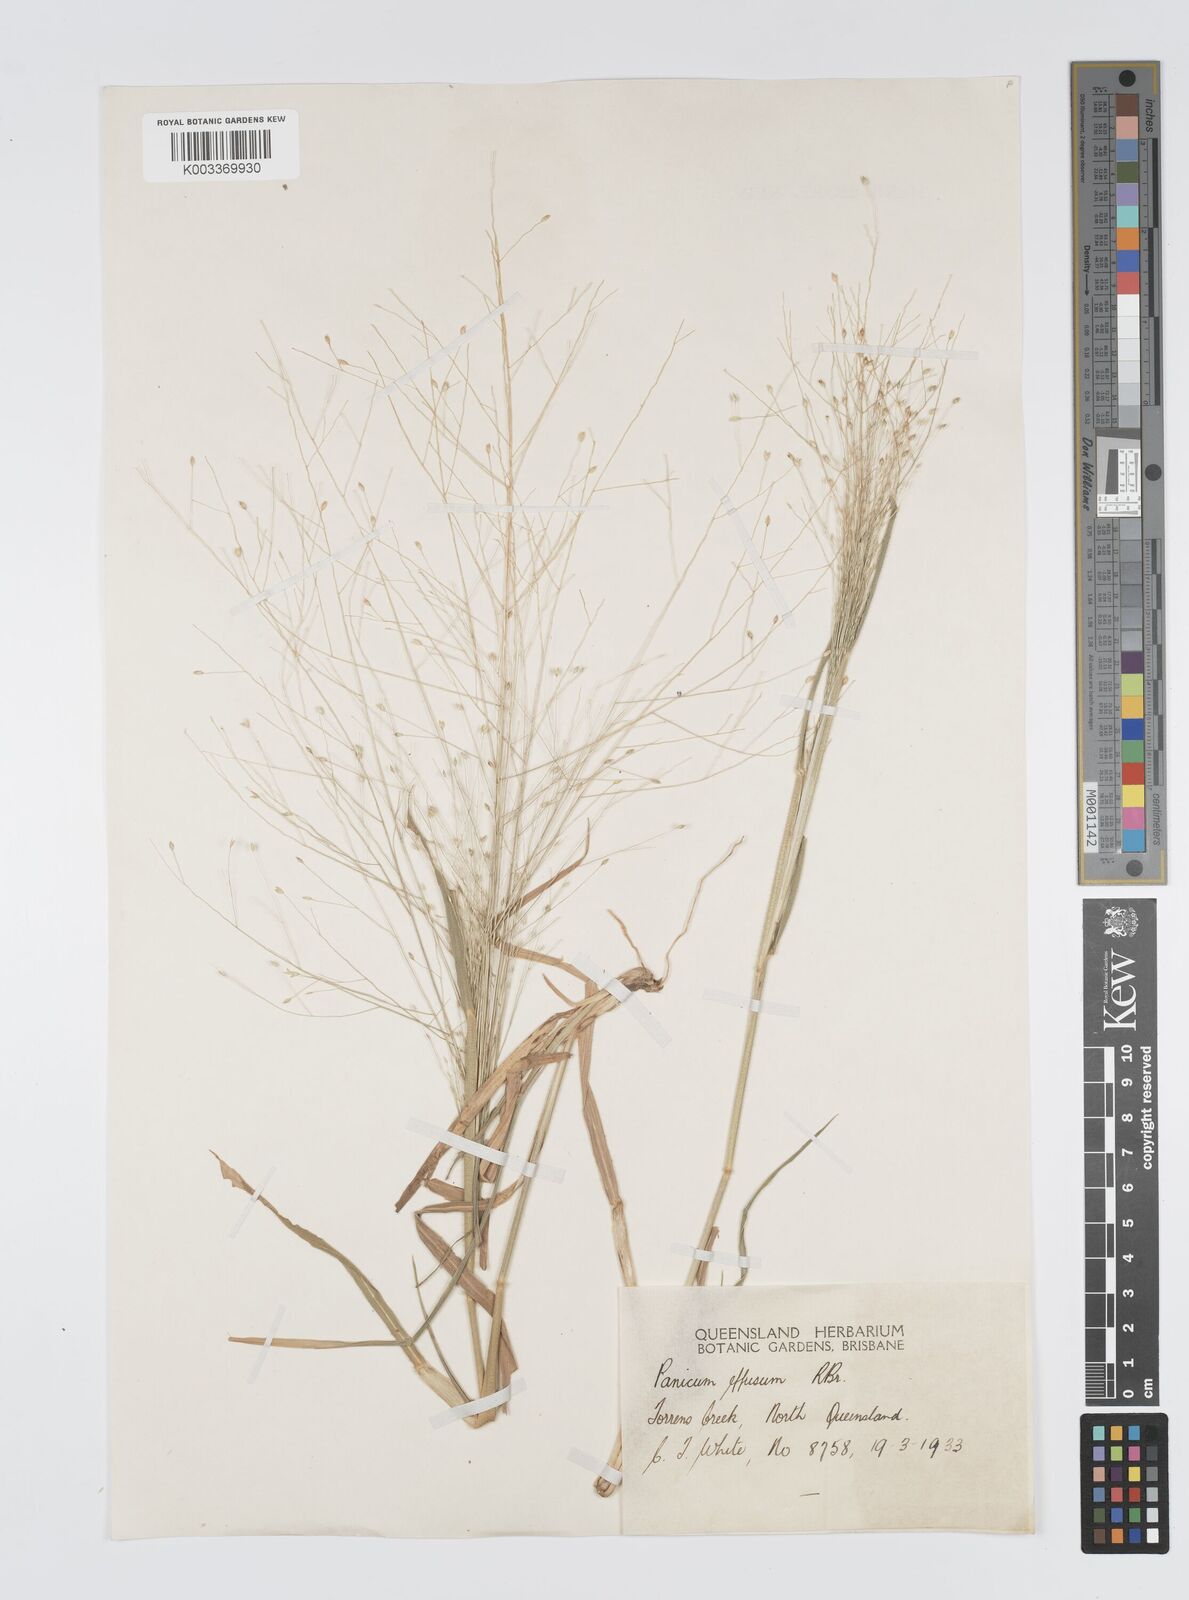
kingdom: Plantae
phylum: Tracheophyta
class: Liliopsida
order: Poales
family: Poaceae
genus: Panicum
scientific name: Panicum effusum
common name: Hairy panic grass
